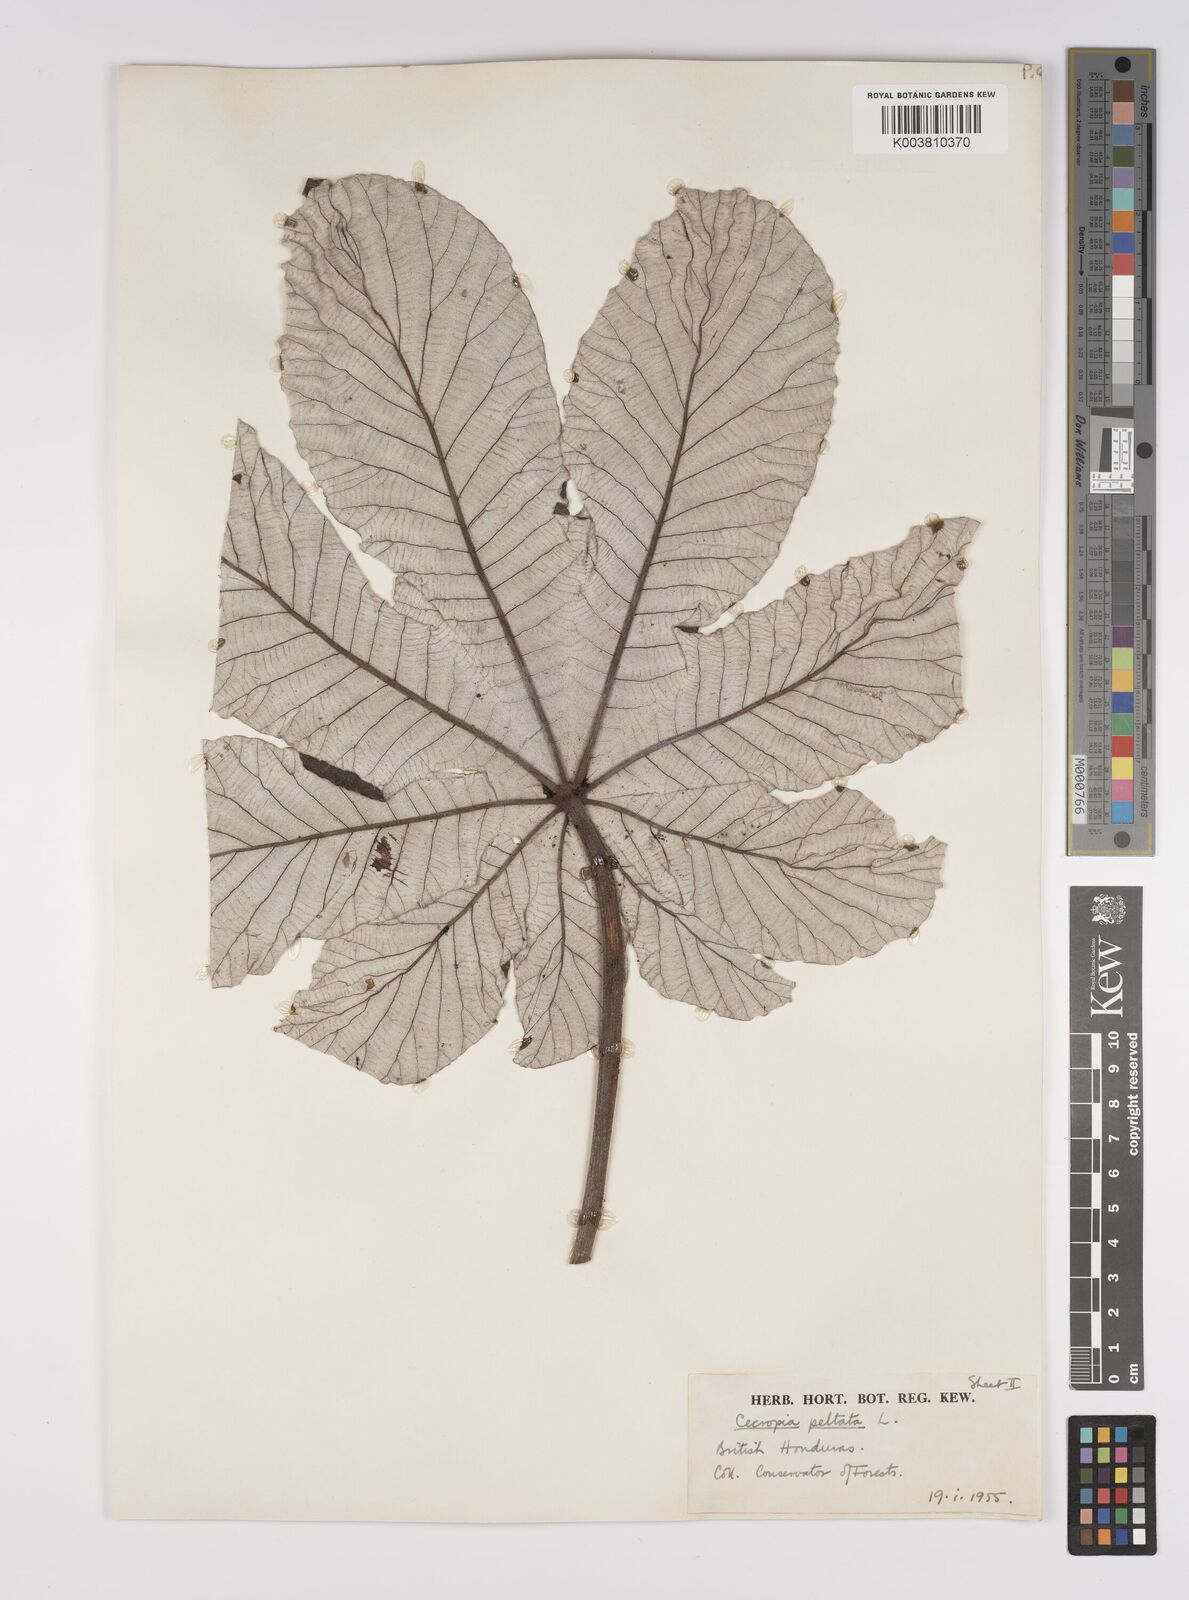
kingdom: Plantae
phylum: Tracheophyta
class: Magnoliopsida
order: Rosales
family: Urticaceae
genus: Cecropia
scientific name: Cecropia peltata
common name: Trumpet-tree
